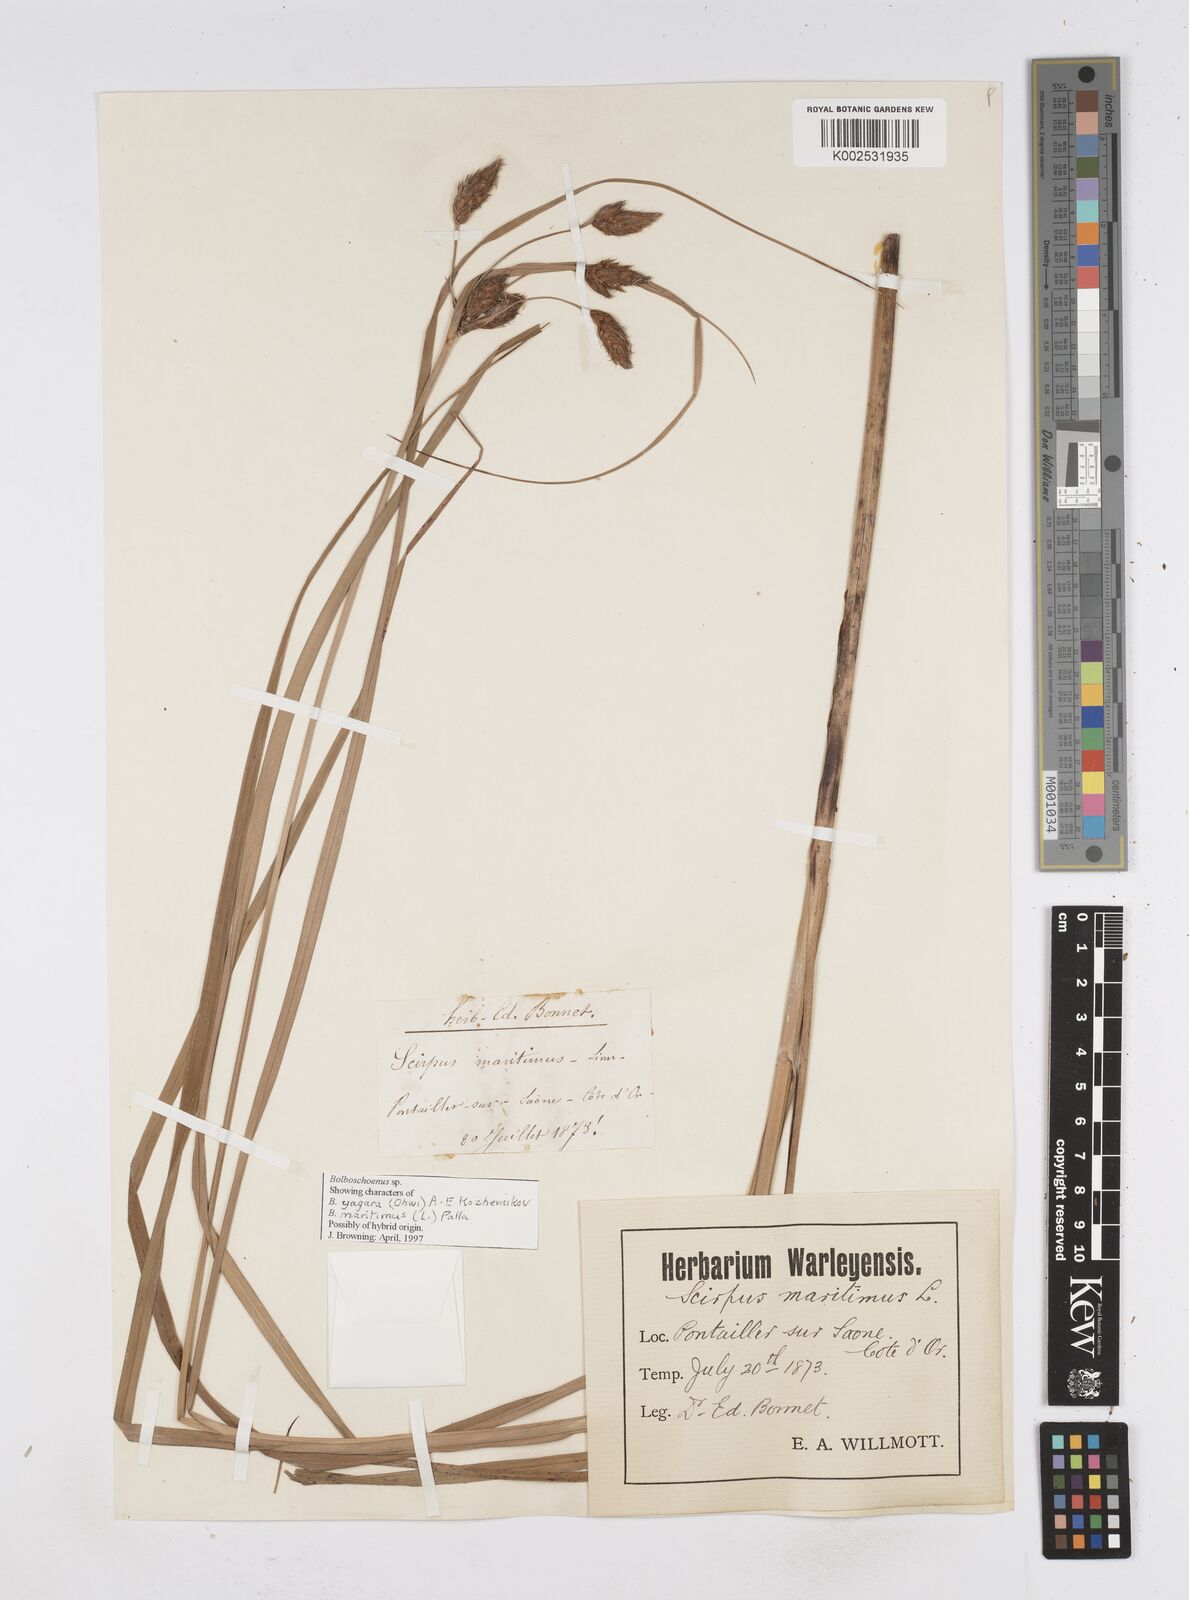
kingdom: Plantae
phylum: Tracheophyta
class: Liliopsida
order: Poales
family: Cyperaceae
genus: Bolboschoenus
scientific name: Bolboschoenus maritimus
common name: Sea club-rush
